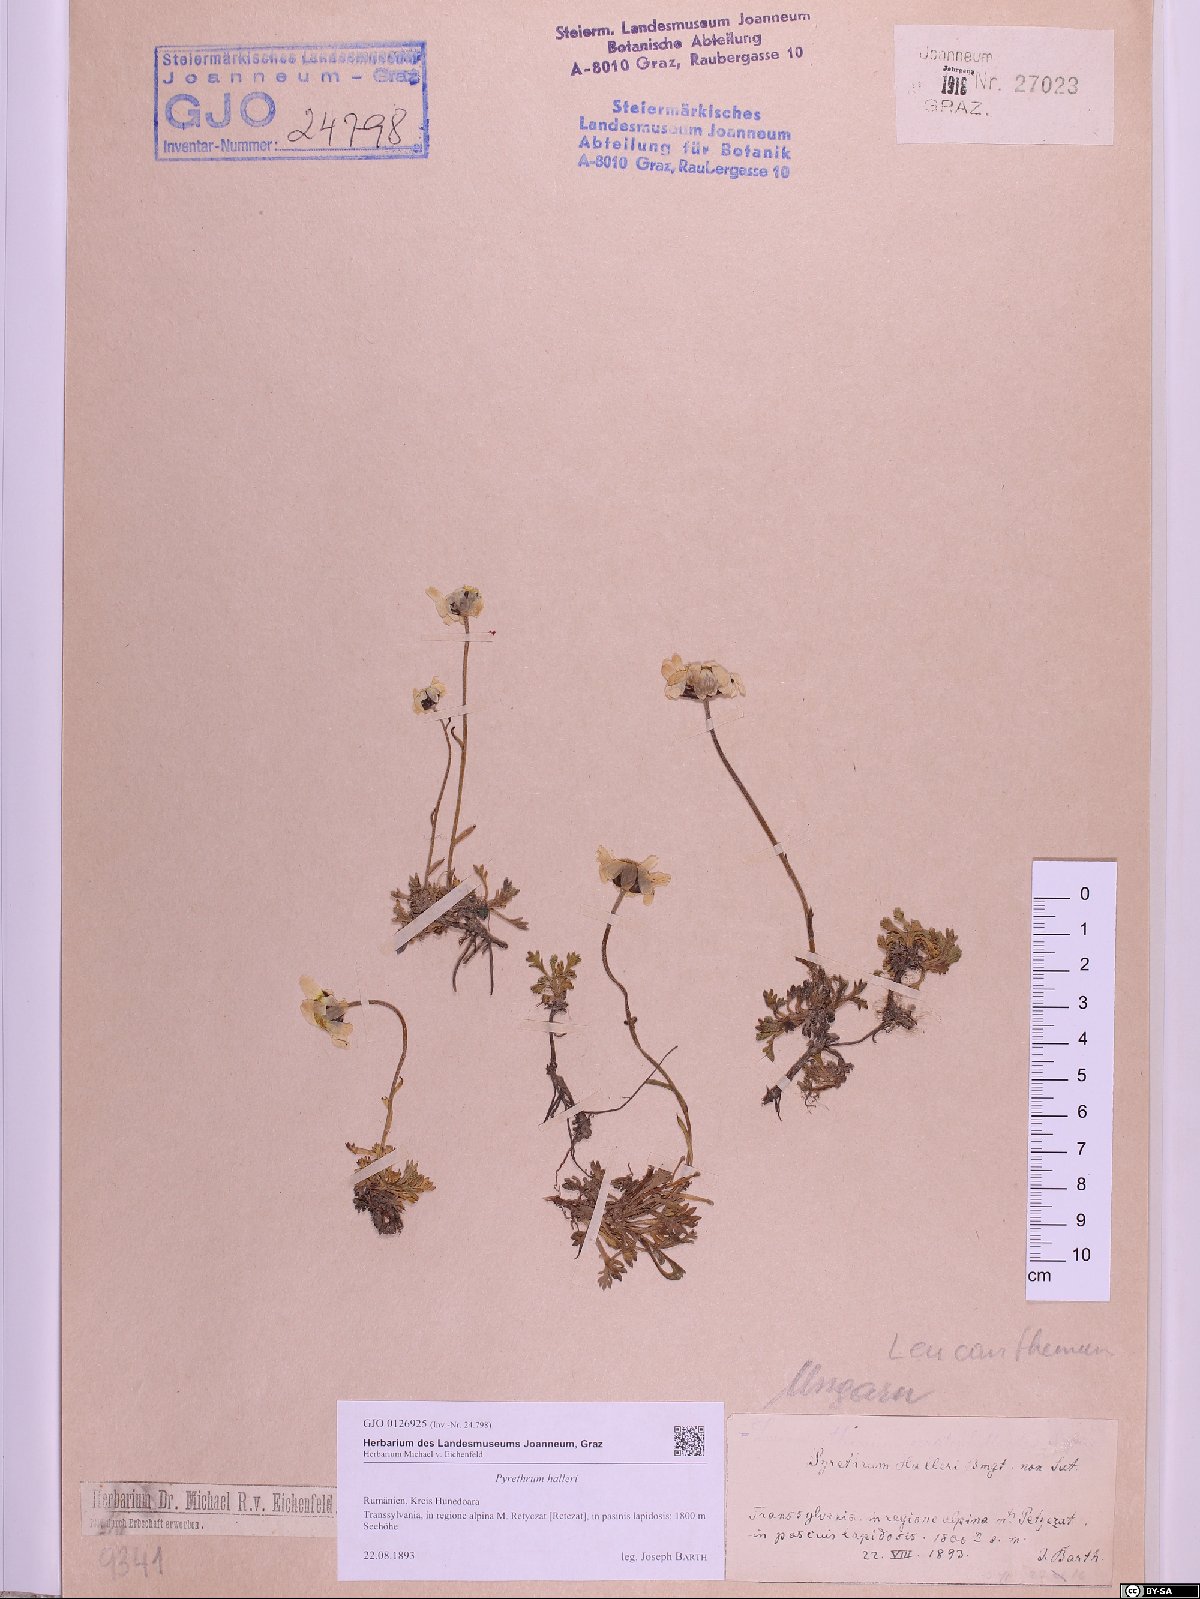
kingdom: Plantae
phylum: Tracheophyta
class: Magnoliopsida
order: Asterales
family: Asteraceae
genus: Leucanthemum
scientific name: Leucanthemum halleri
